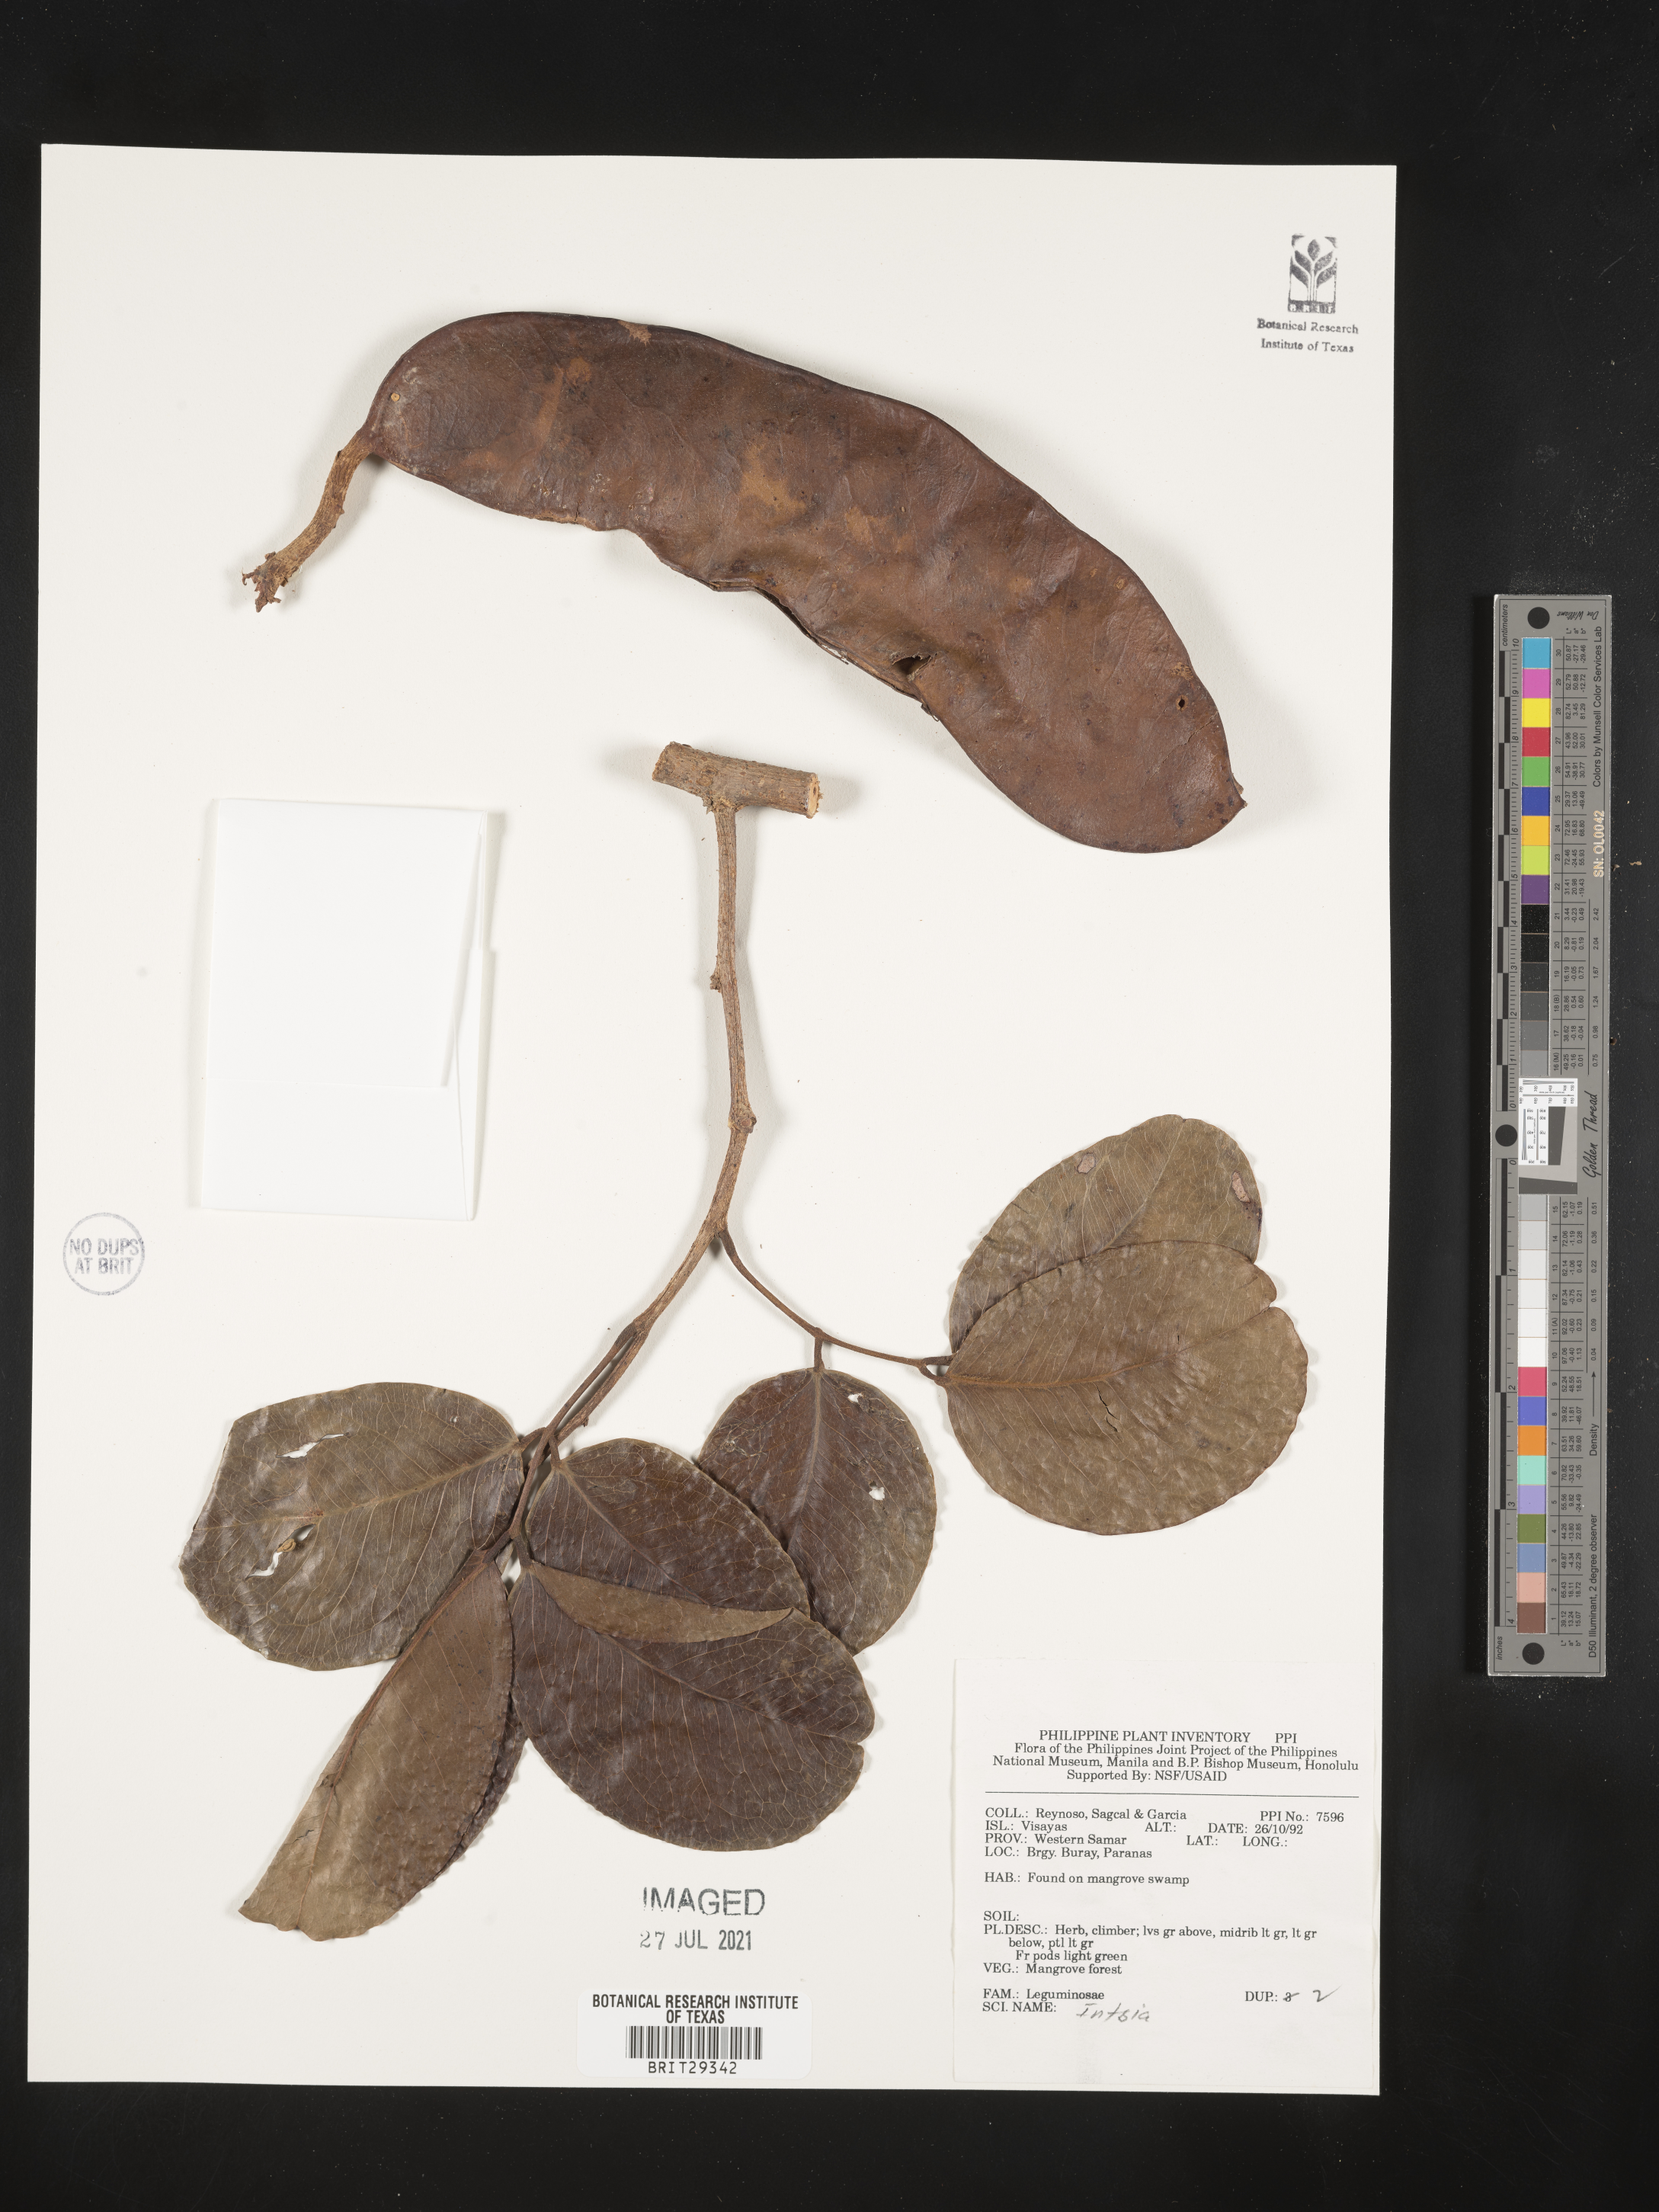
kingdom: Plantae
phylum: Tracheophyta
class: Magnoliopsida
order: Fabales
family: Fabaceae
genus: Intsia
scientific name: Intsia
